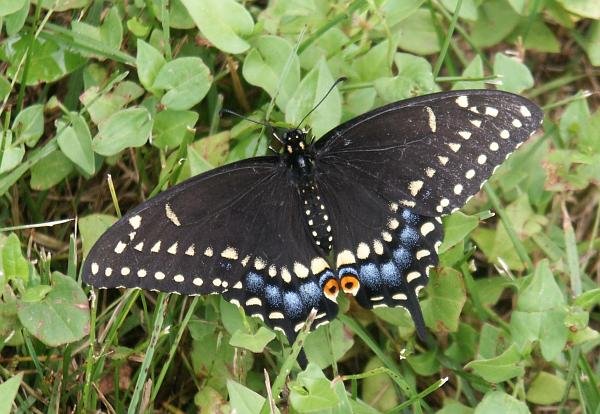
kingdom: Animalia
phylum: Arthropoda
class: Insecta
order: Lepidoptera
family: Papilionidae
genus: Pterourus
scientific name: Pterourus canadensis
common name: Canadian Tiger Swallowtail
